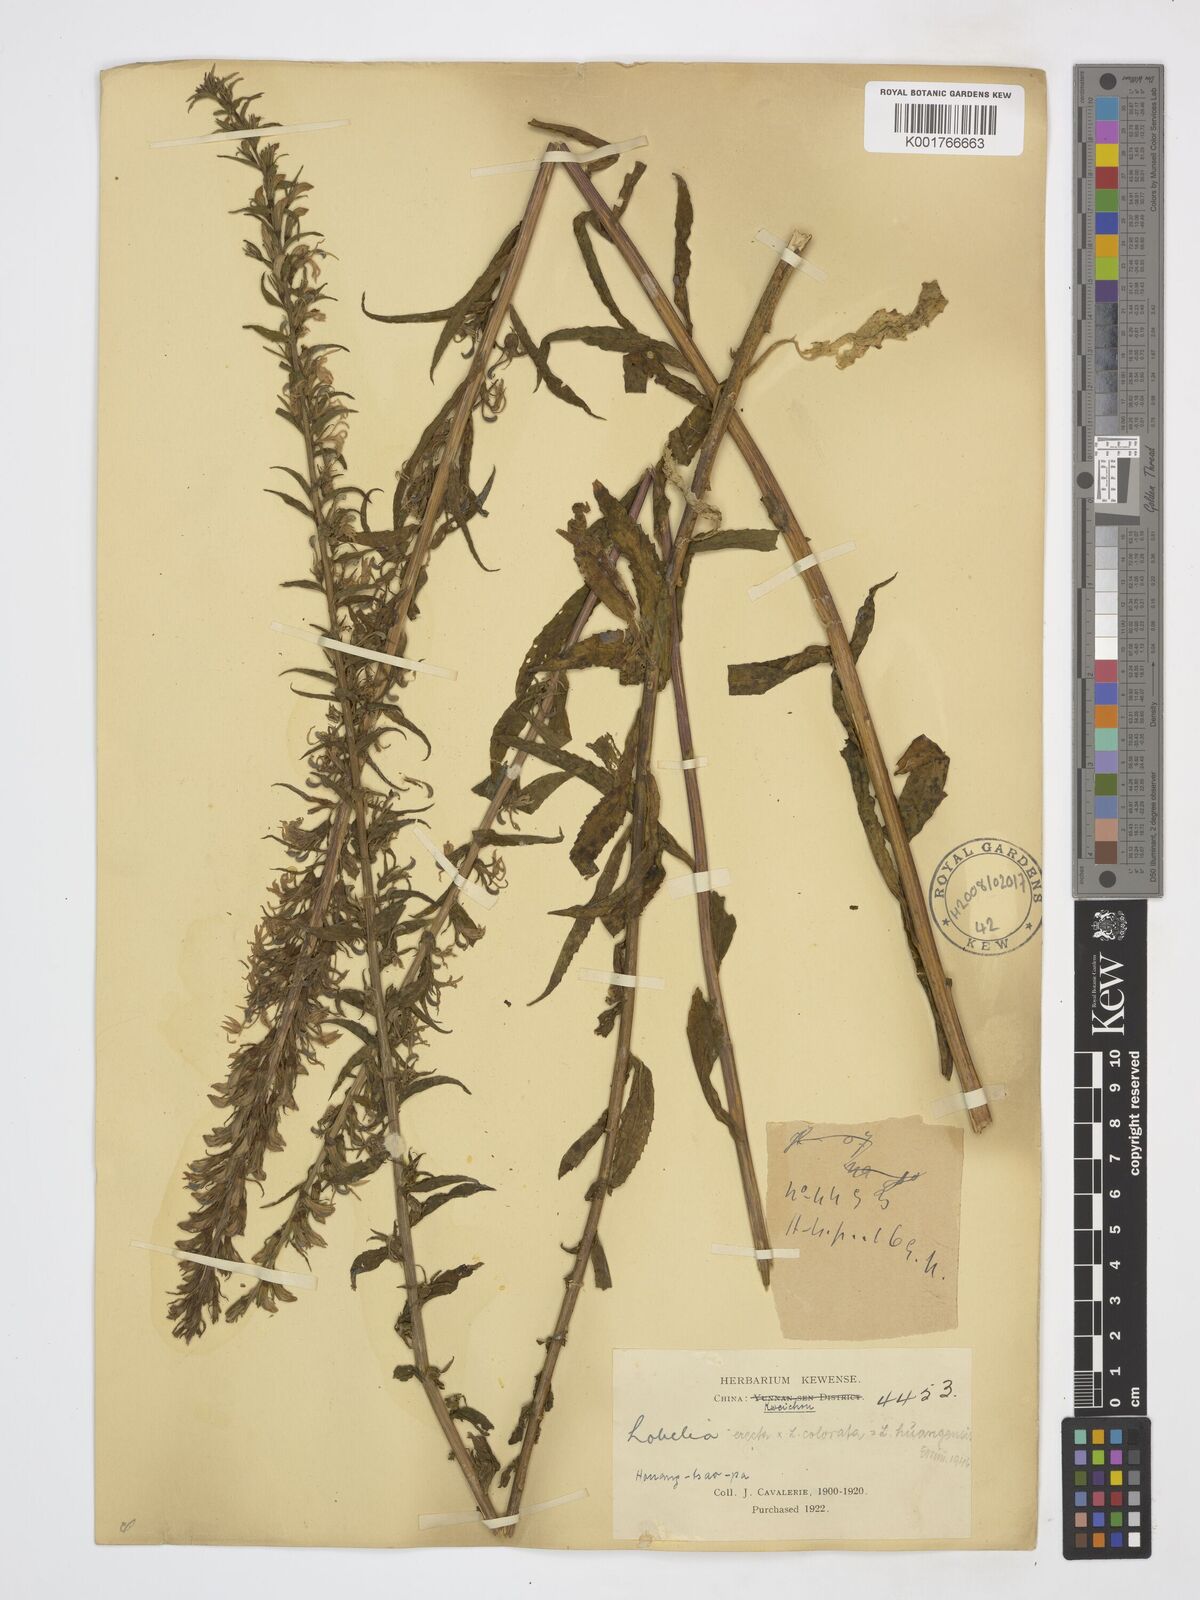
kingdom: Plantae
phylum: Tracheophyta
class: Magnoliopsida
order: Asterales
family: Campanulaceae
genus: Lobelia
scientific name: Lobelia erectiuscula
